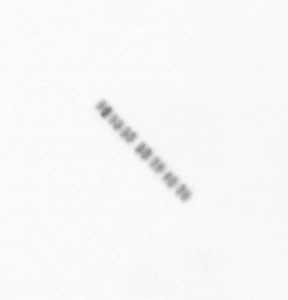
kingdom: Chromista
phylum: Ochrophyta
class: Bacillariophyceae
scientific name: Bacillariophyceae
